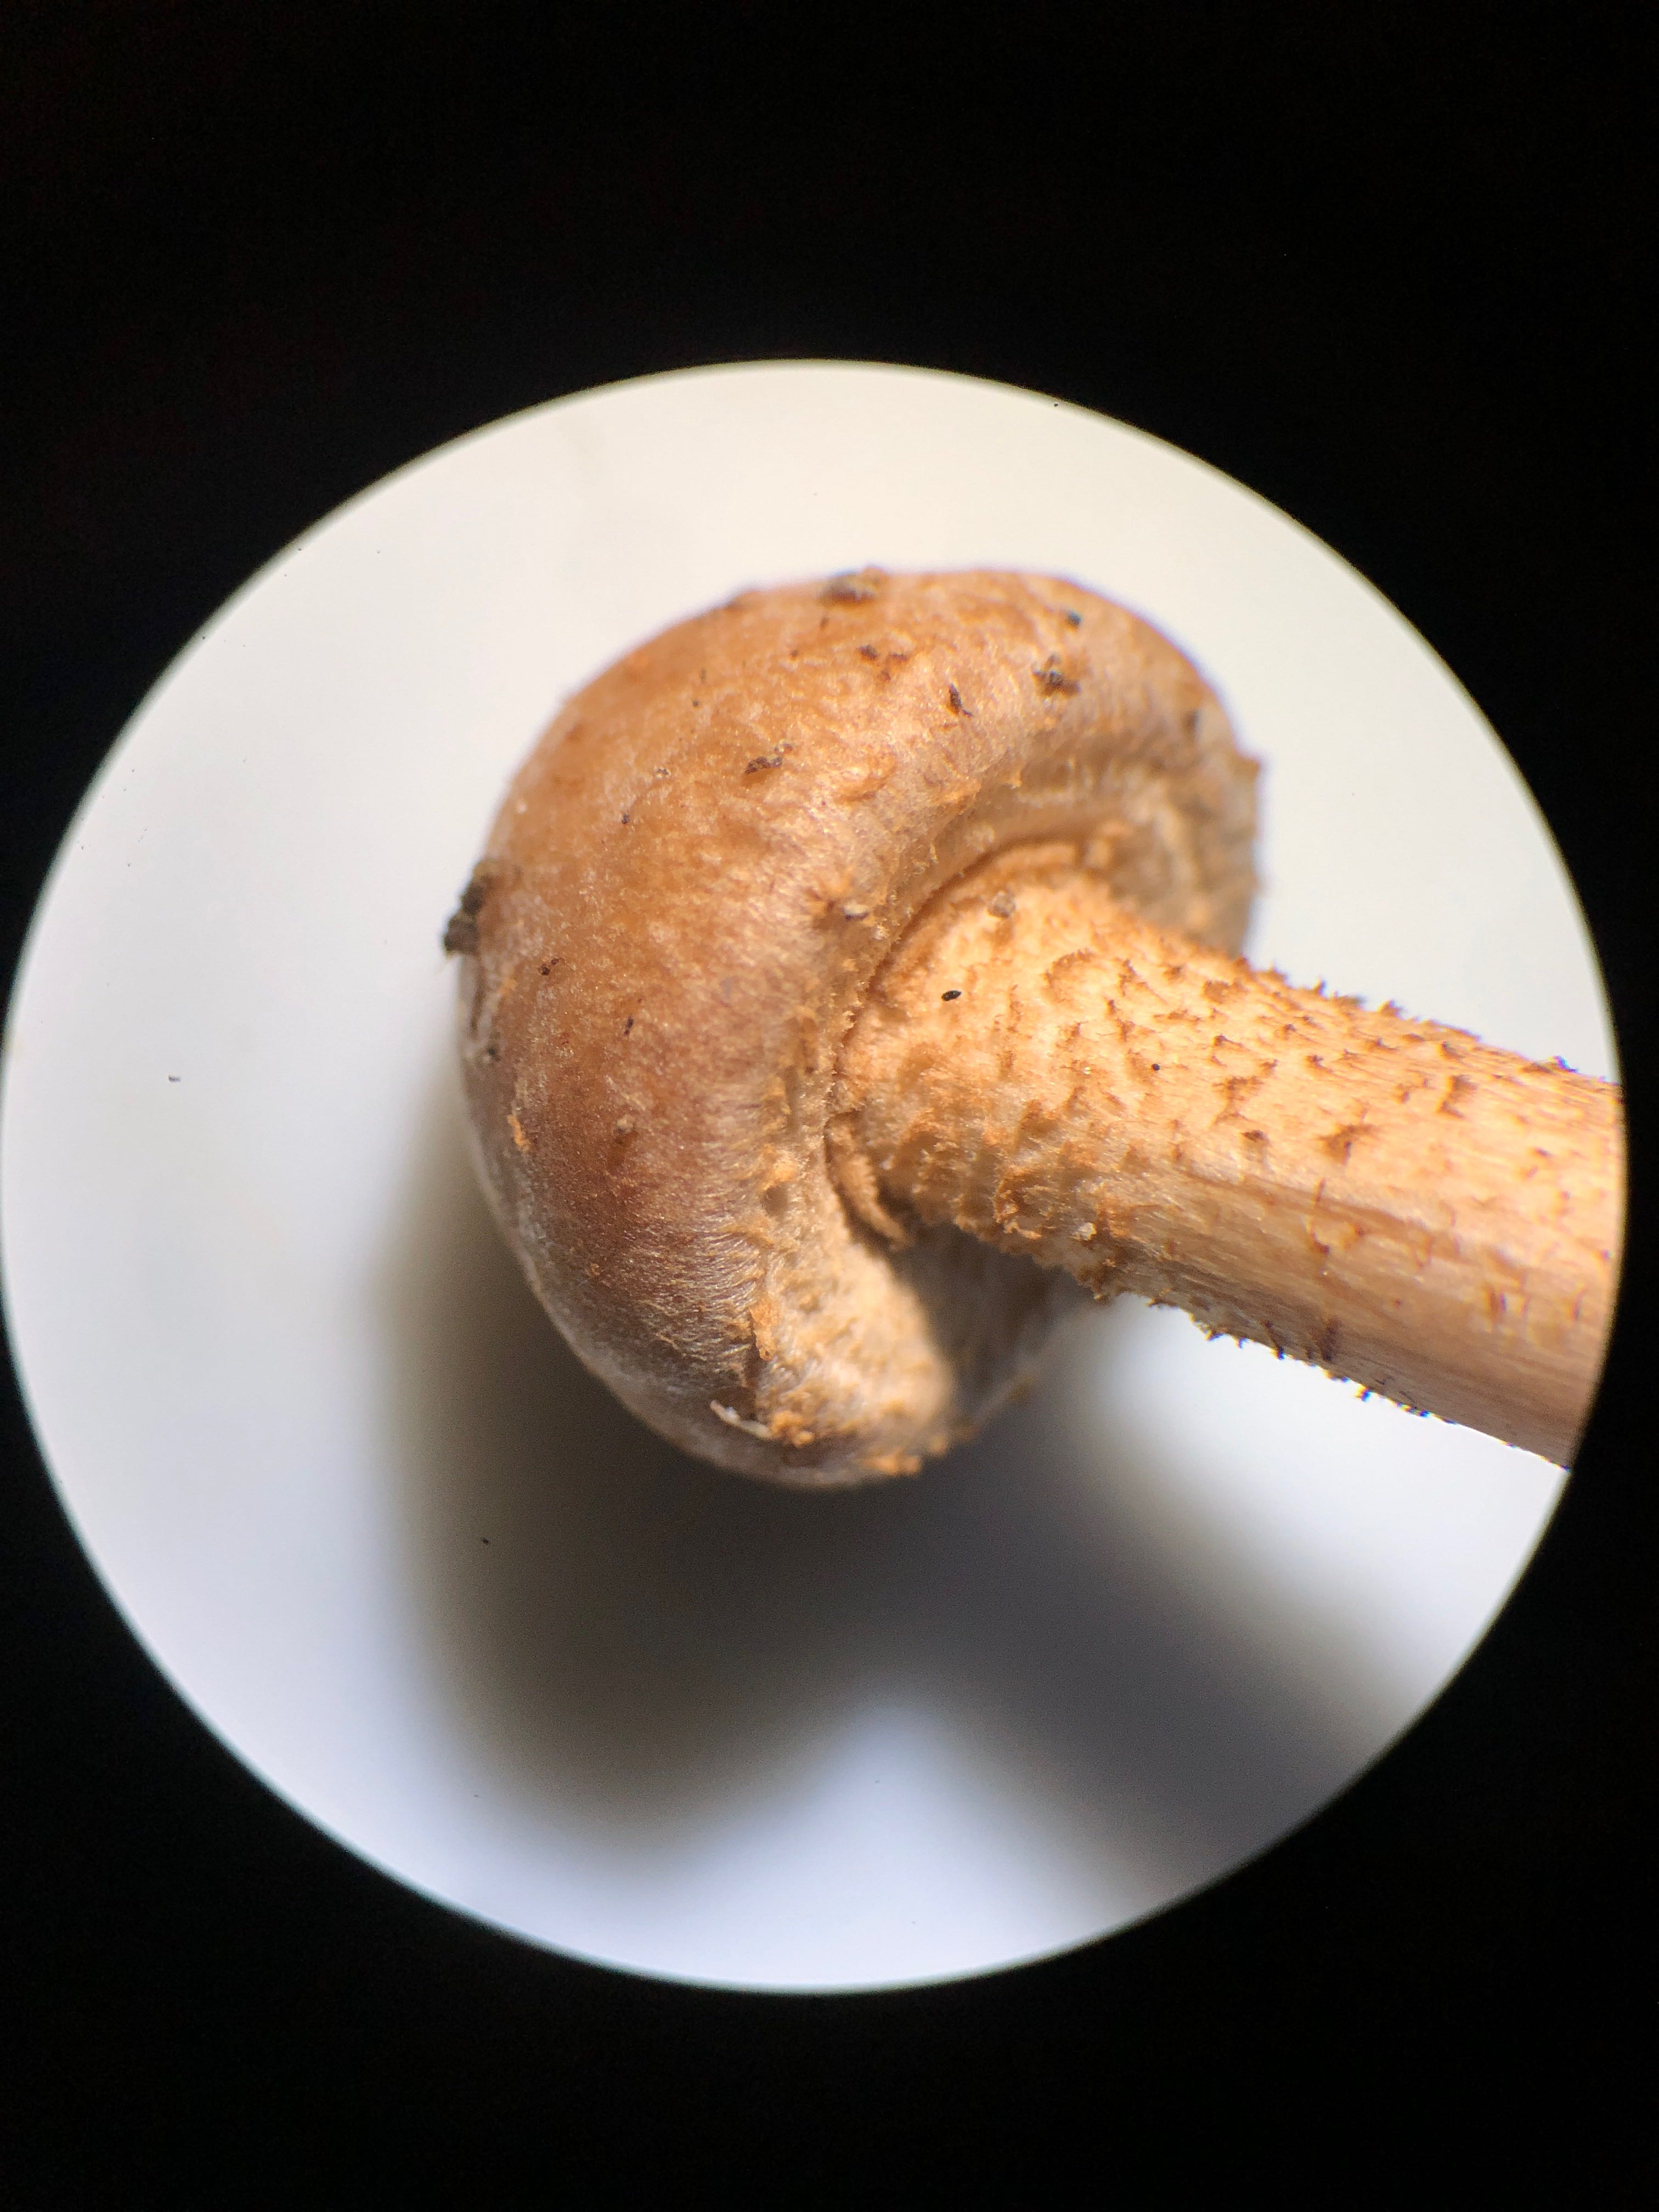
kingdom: Fungi
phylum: Basidiomycota
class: Agaricomycetes
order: Agaricales
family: Strophariaceae
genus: Kuehneromyces
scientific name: Kuehneromyces mutabilis
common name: foranderlig skælhat
